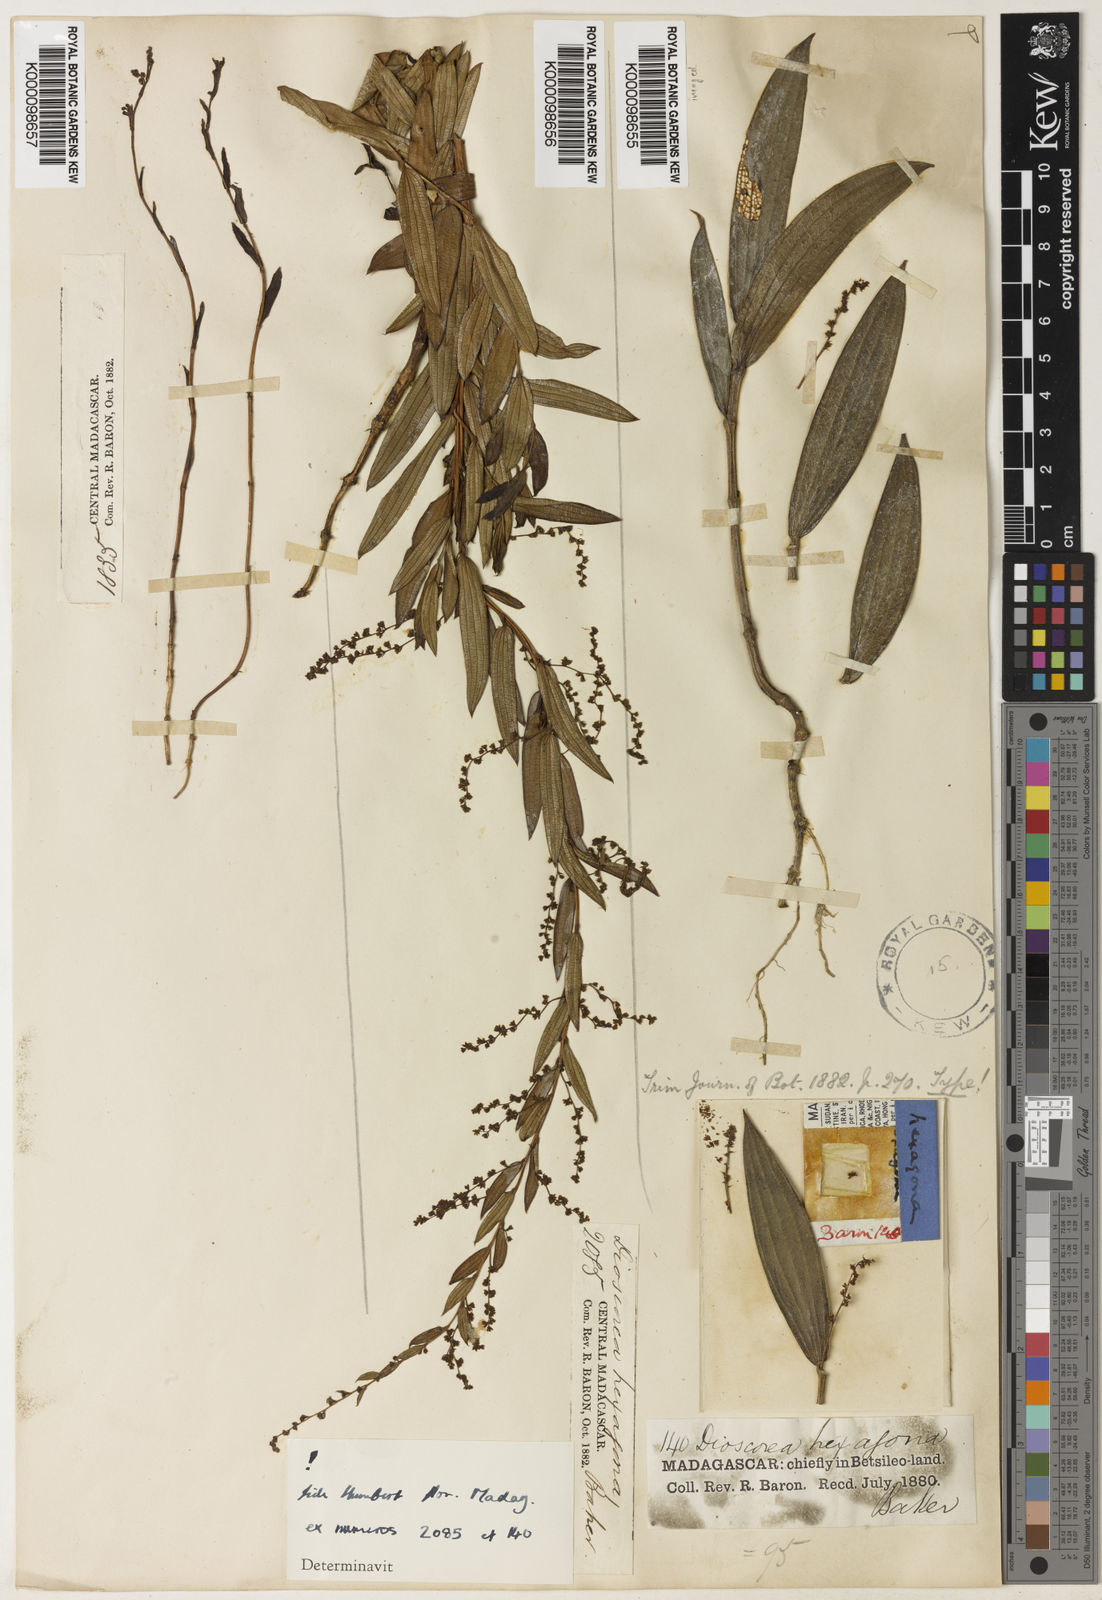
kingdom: Plantae
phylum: Tracheophyta
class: Liliopsida
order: Dioscoreales
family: Dioscoreaceae
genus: Dioscorea
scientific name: Dioscorea hexagona
